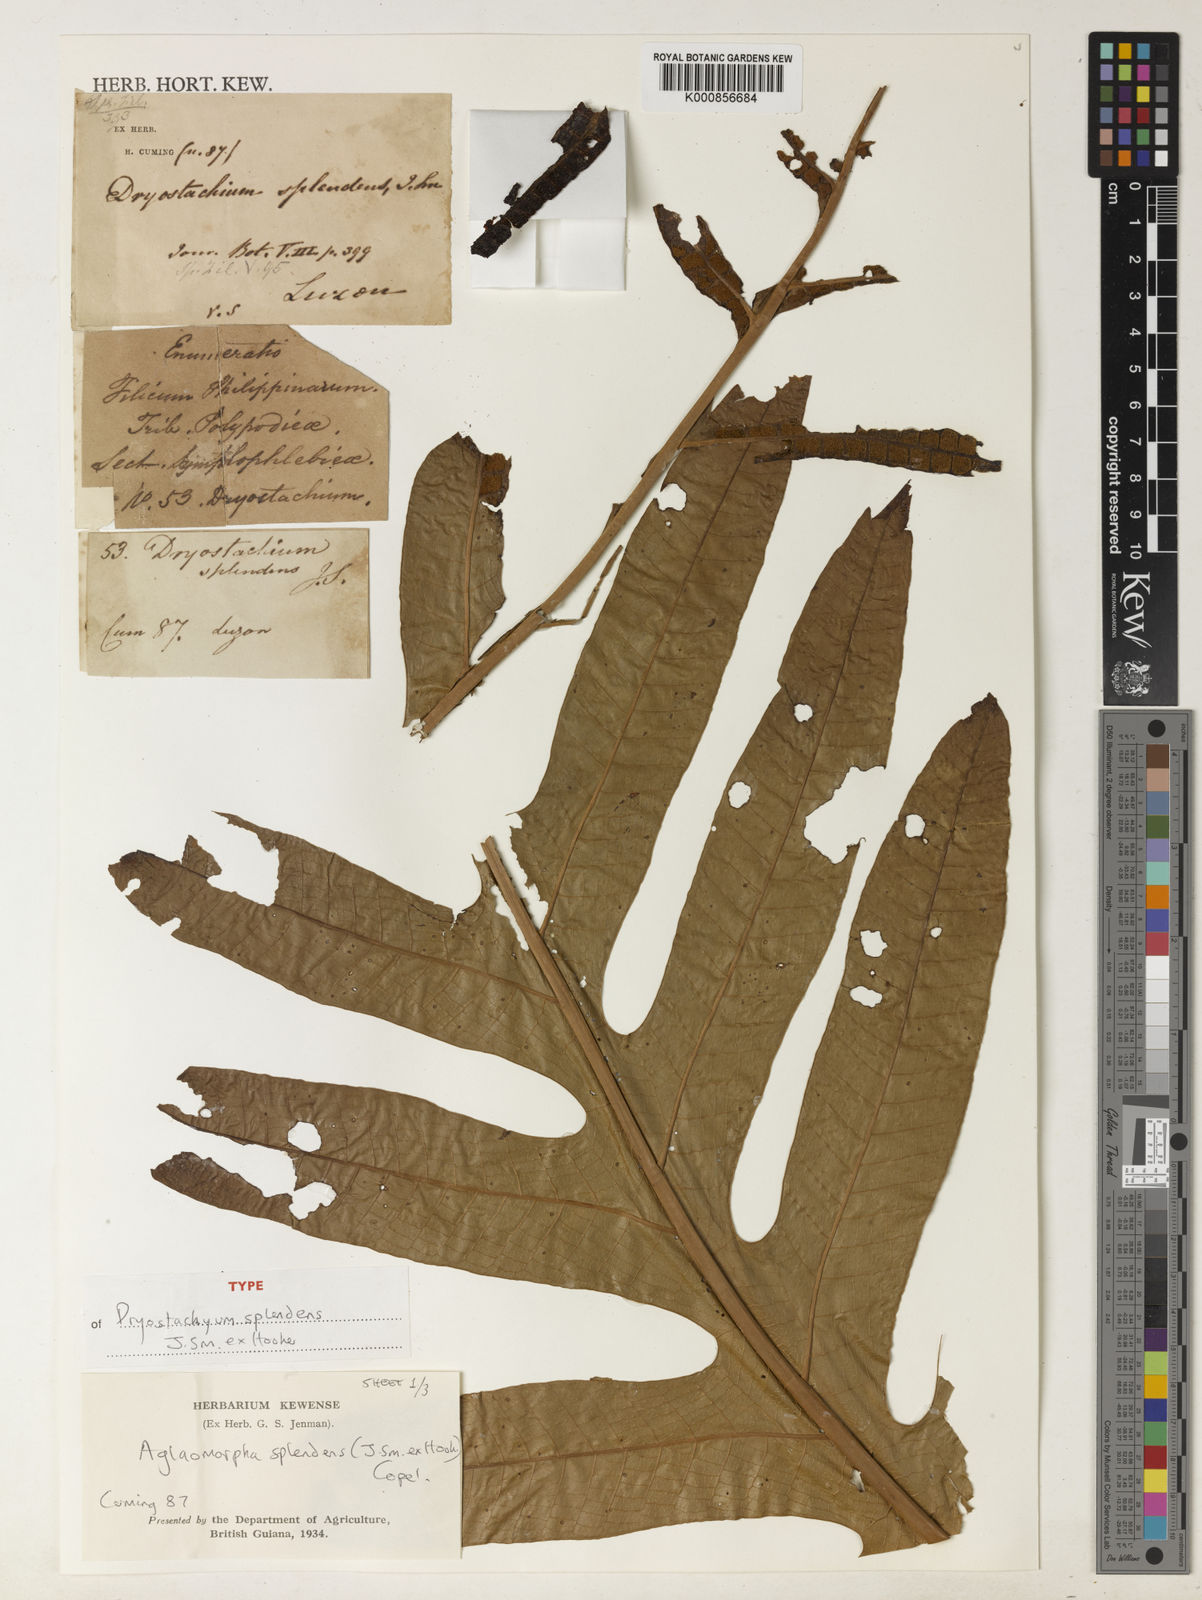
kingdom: Plantae
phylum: Tracheophyta
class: Polypodiopsida
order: Polypodiales
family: Polypodiaceae
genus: Drynaria
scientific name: Drynaria splendens
